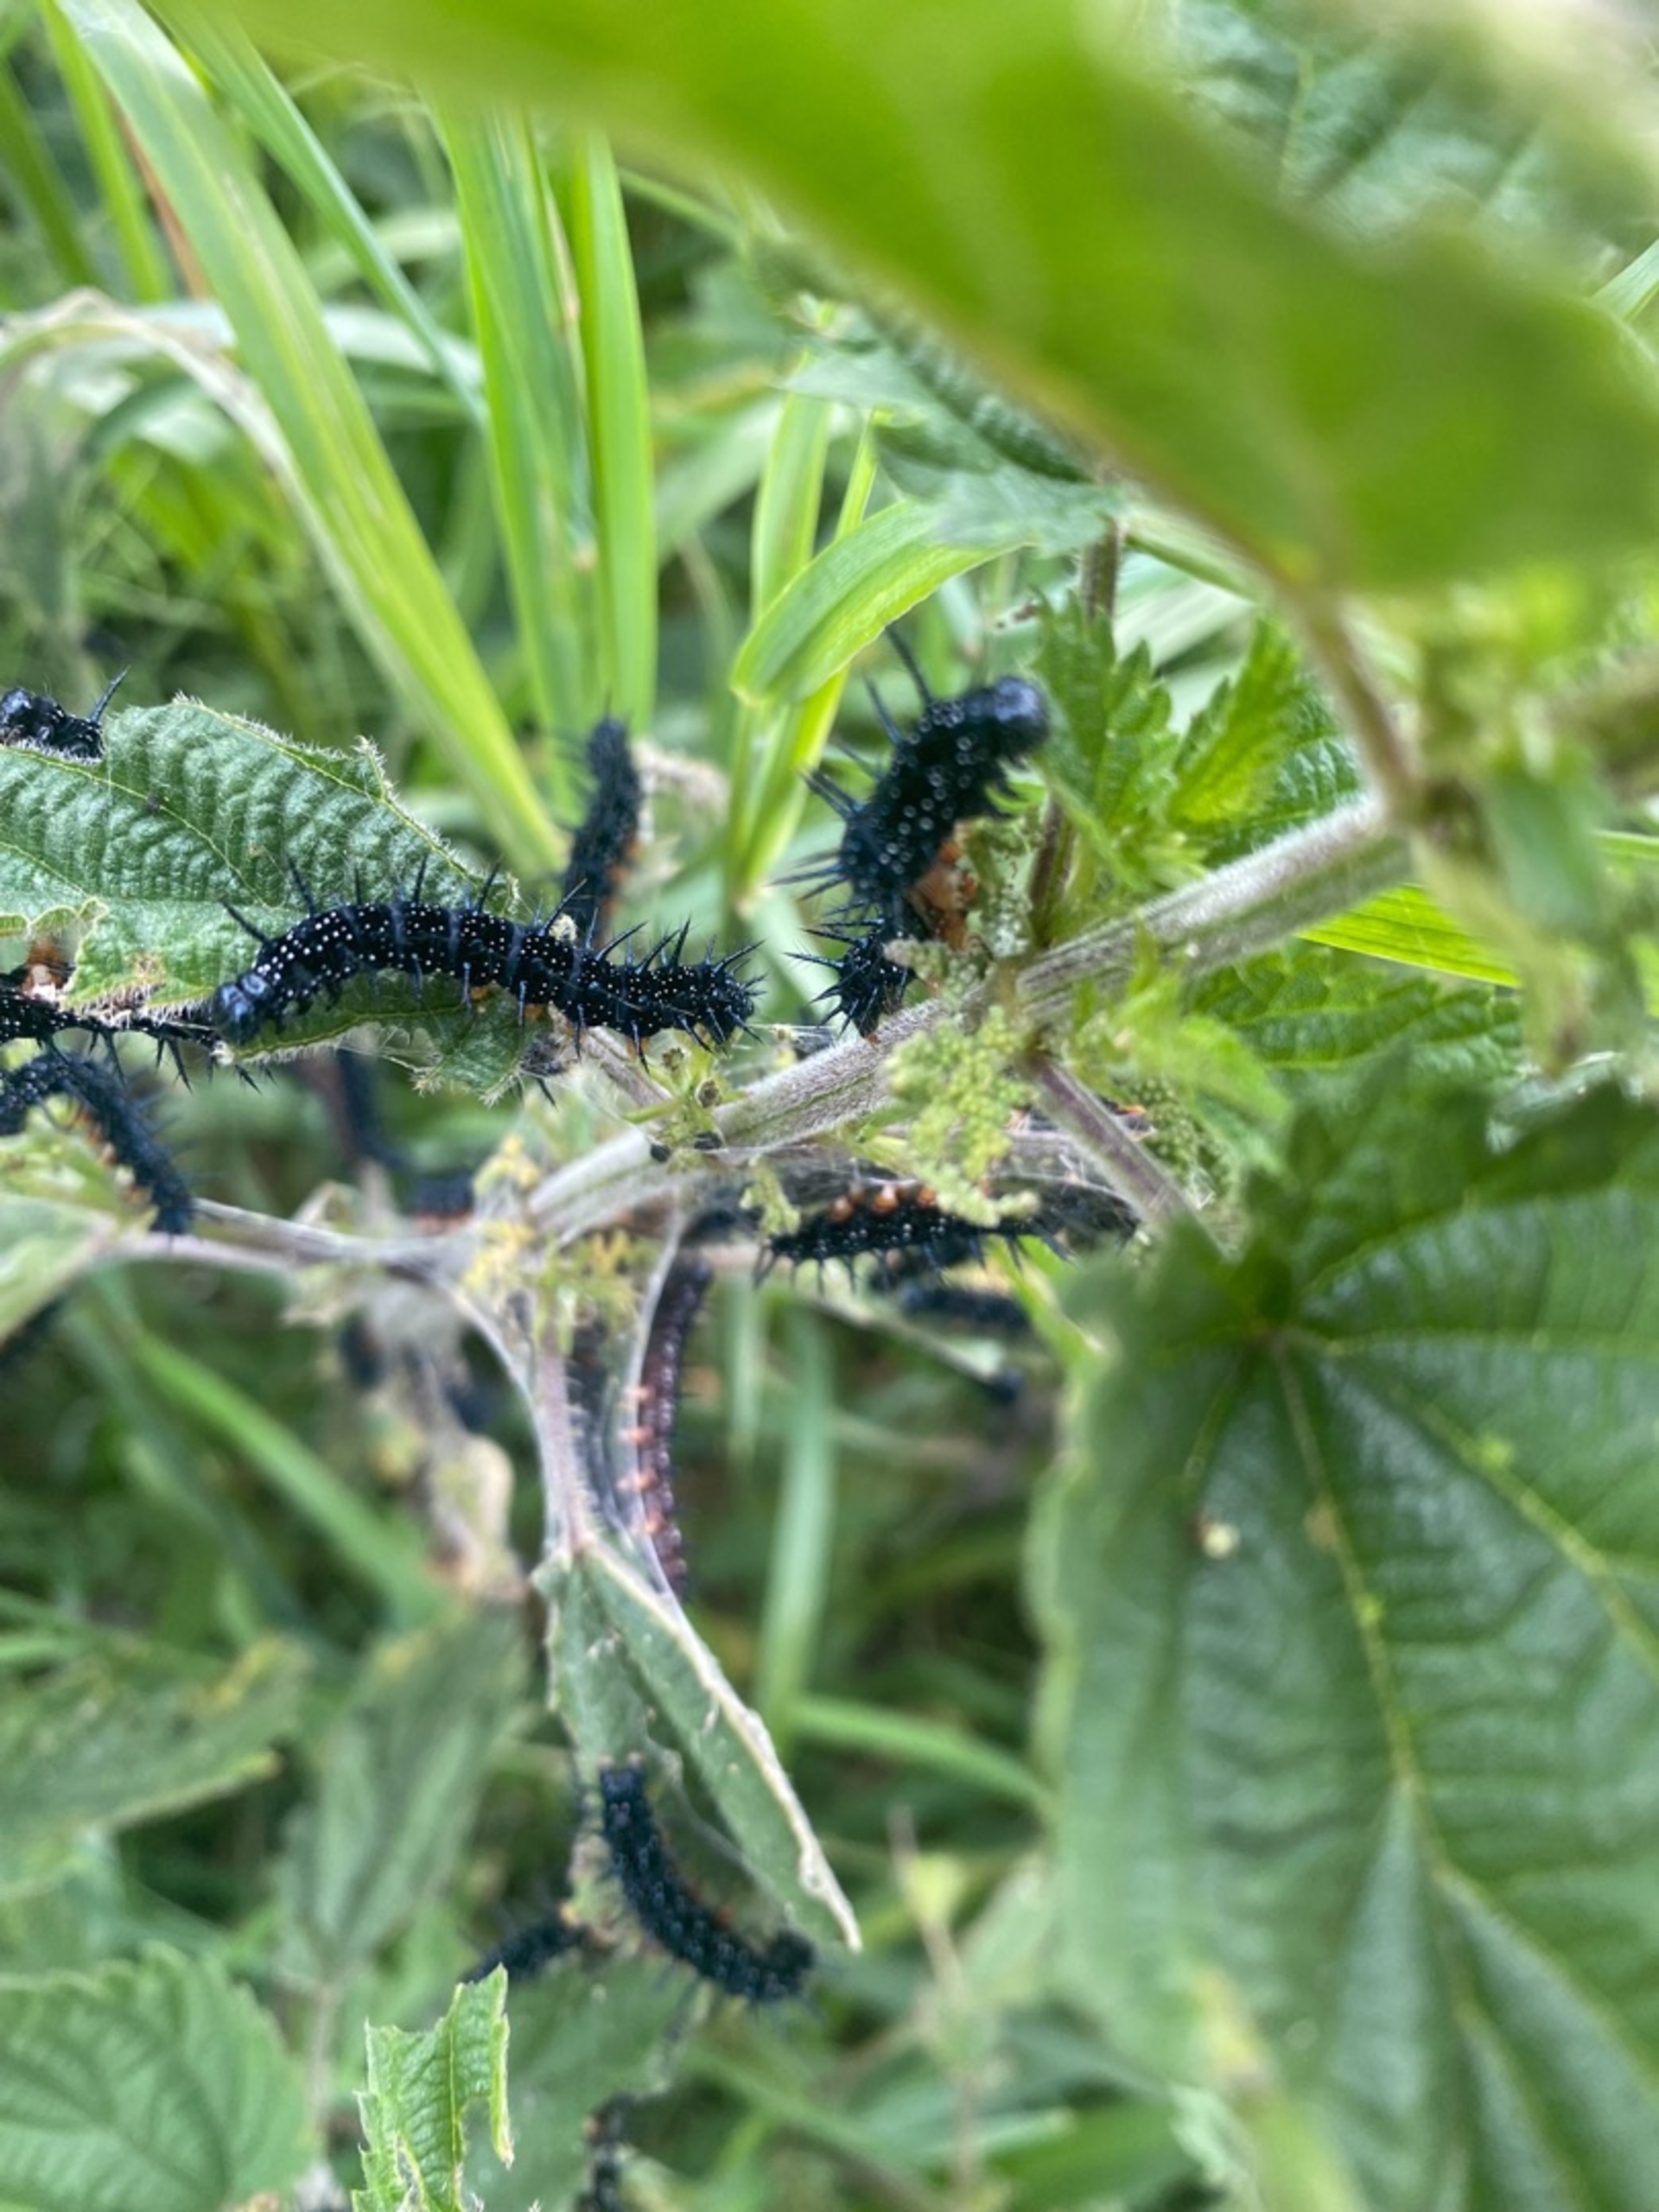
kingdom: Animalia
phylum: Arthropoda
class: Insecta
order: Lepidoptera
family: Nymphalidae
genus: Aglais
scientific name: Aglais io
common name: Dagpåfugleøje
